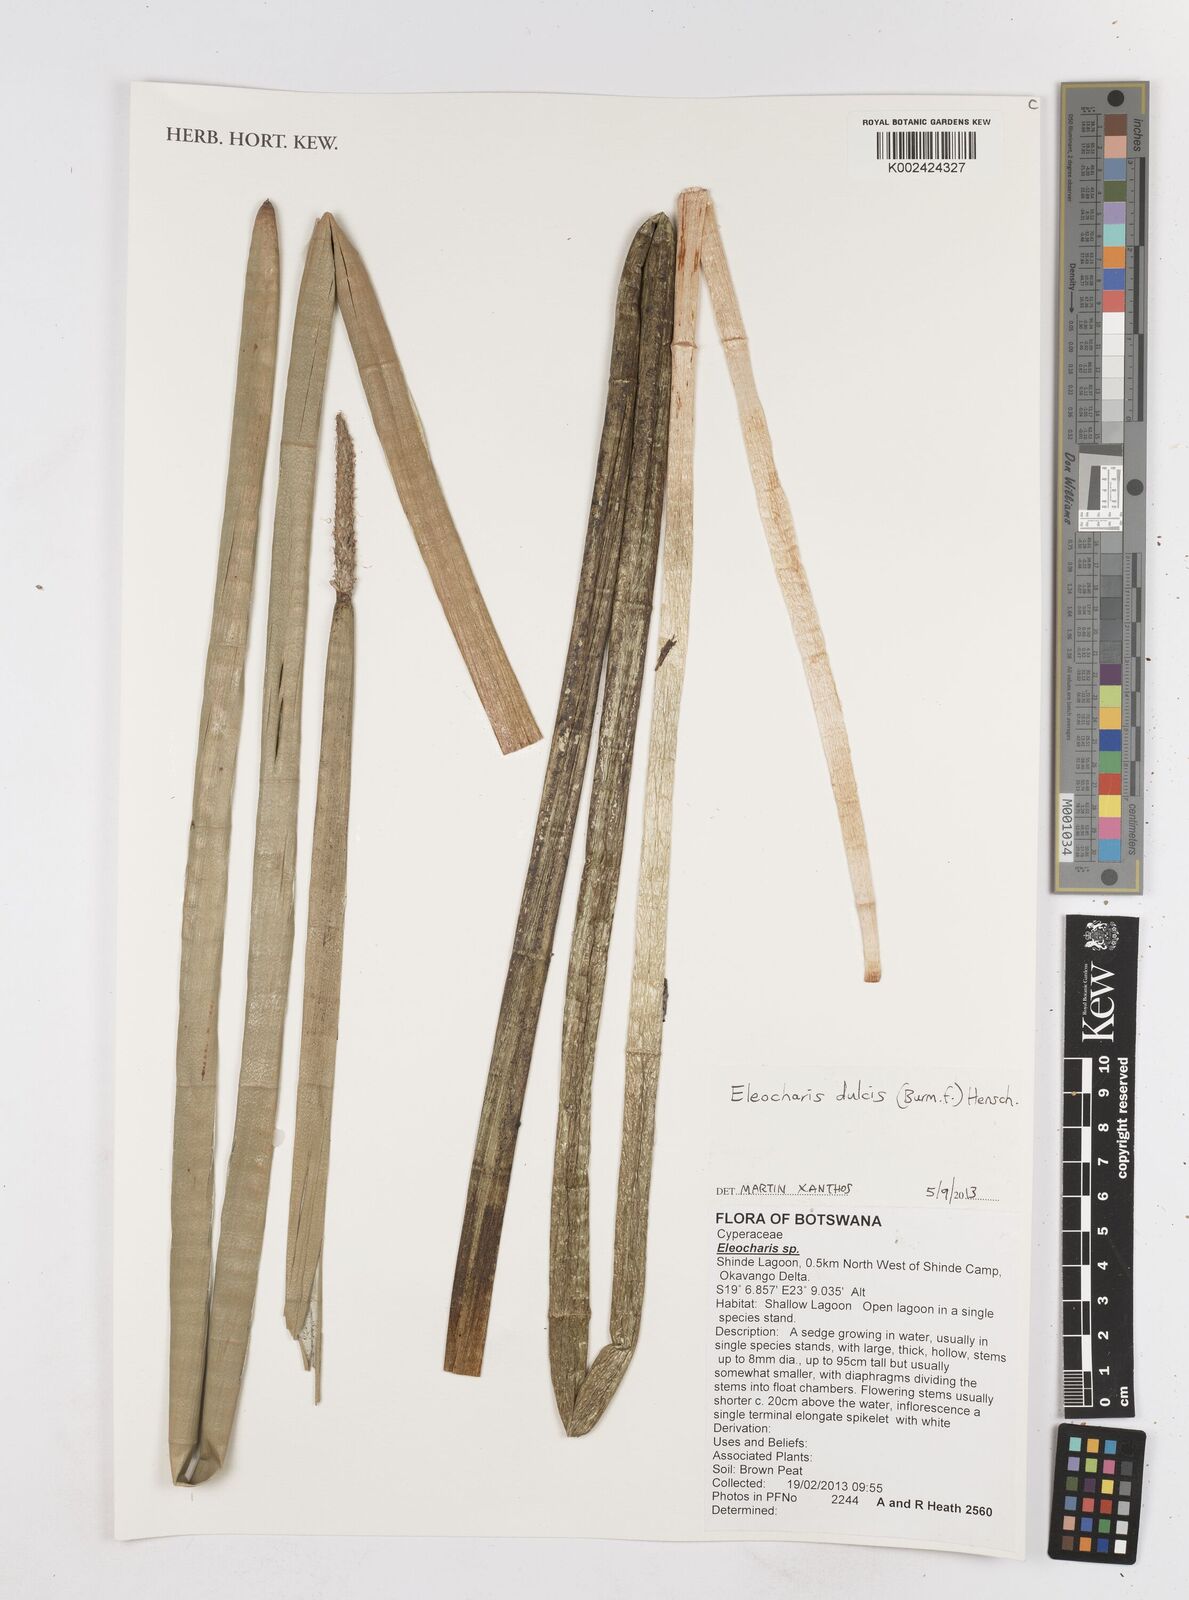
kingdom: Plantae
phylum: Tracheophyta
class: Liliopsida
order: Poales
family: Cyperaceae
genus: Eleocharis
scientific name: Eleocharis dulcis
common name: Chinese water chestnut
